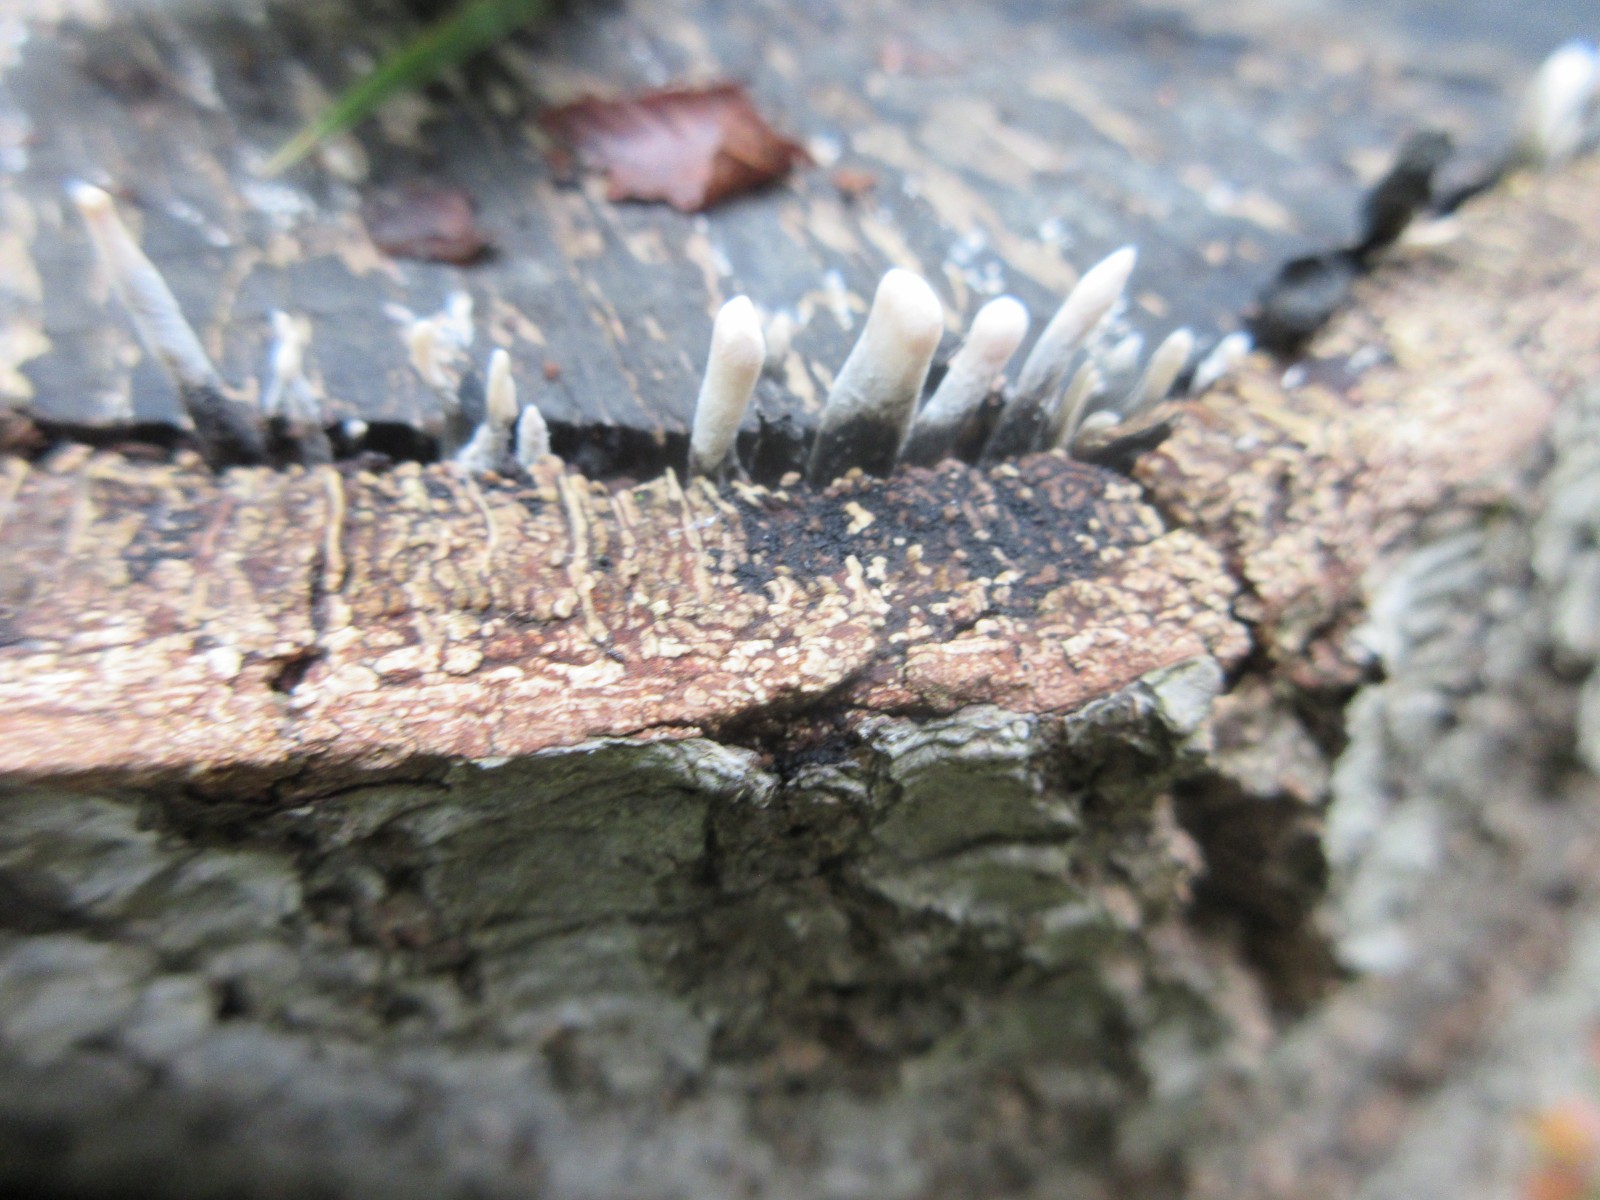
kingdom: Fungi
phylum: Ascomycota
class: Sordariomycetes
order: Xylariales
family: Xylariaceae
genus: Xylaria
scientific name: Xylaria hypoxylon
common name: grenet stødsvamp
